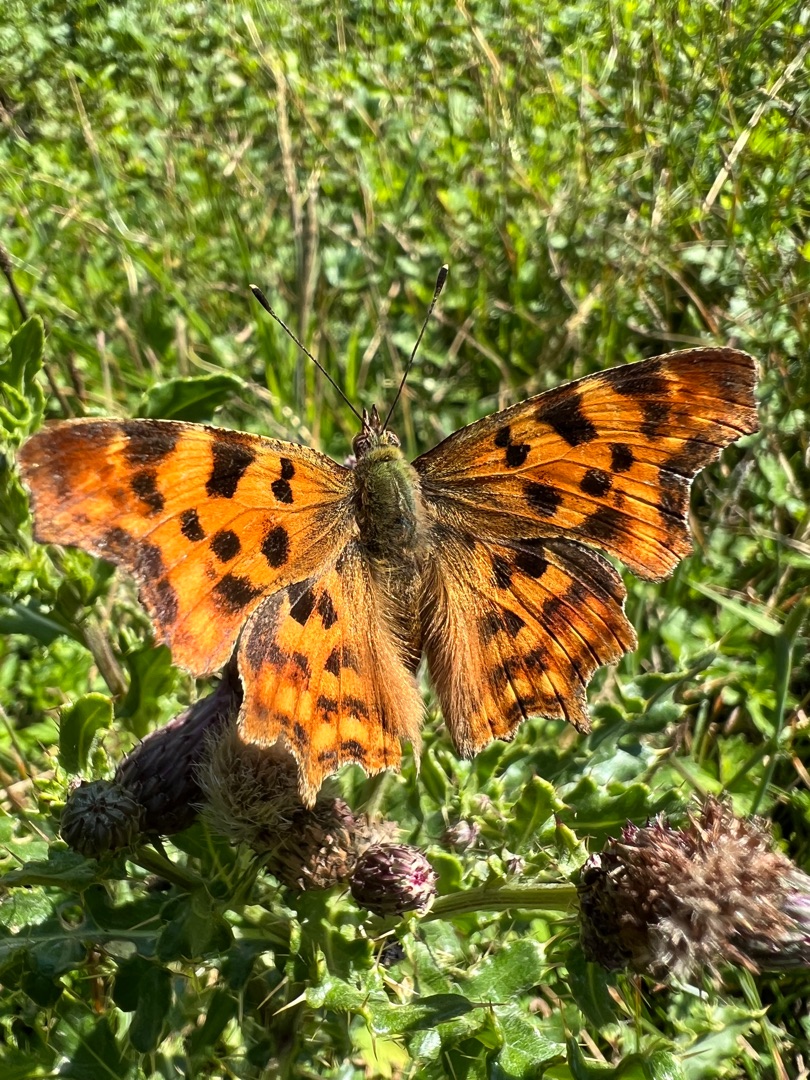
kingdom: Animalia
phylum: Arthropoda
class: Insecta
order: Lepidoptera
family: Nymphalidae
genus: Polygonia
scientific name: Polygonia c-album
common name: Det hvide C
